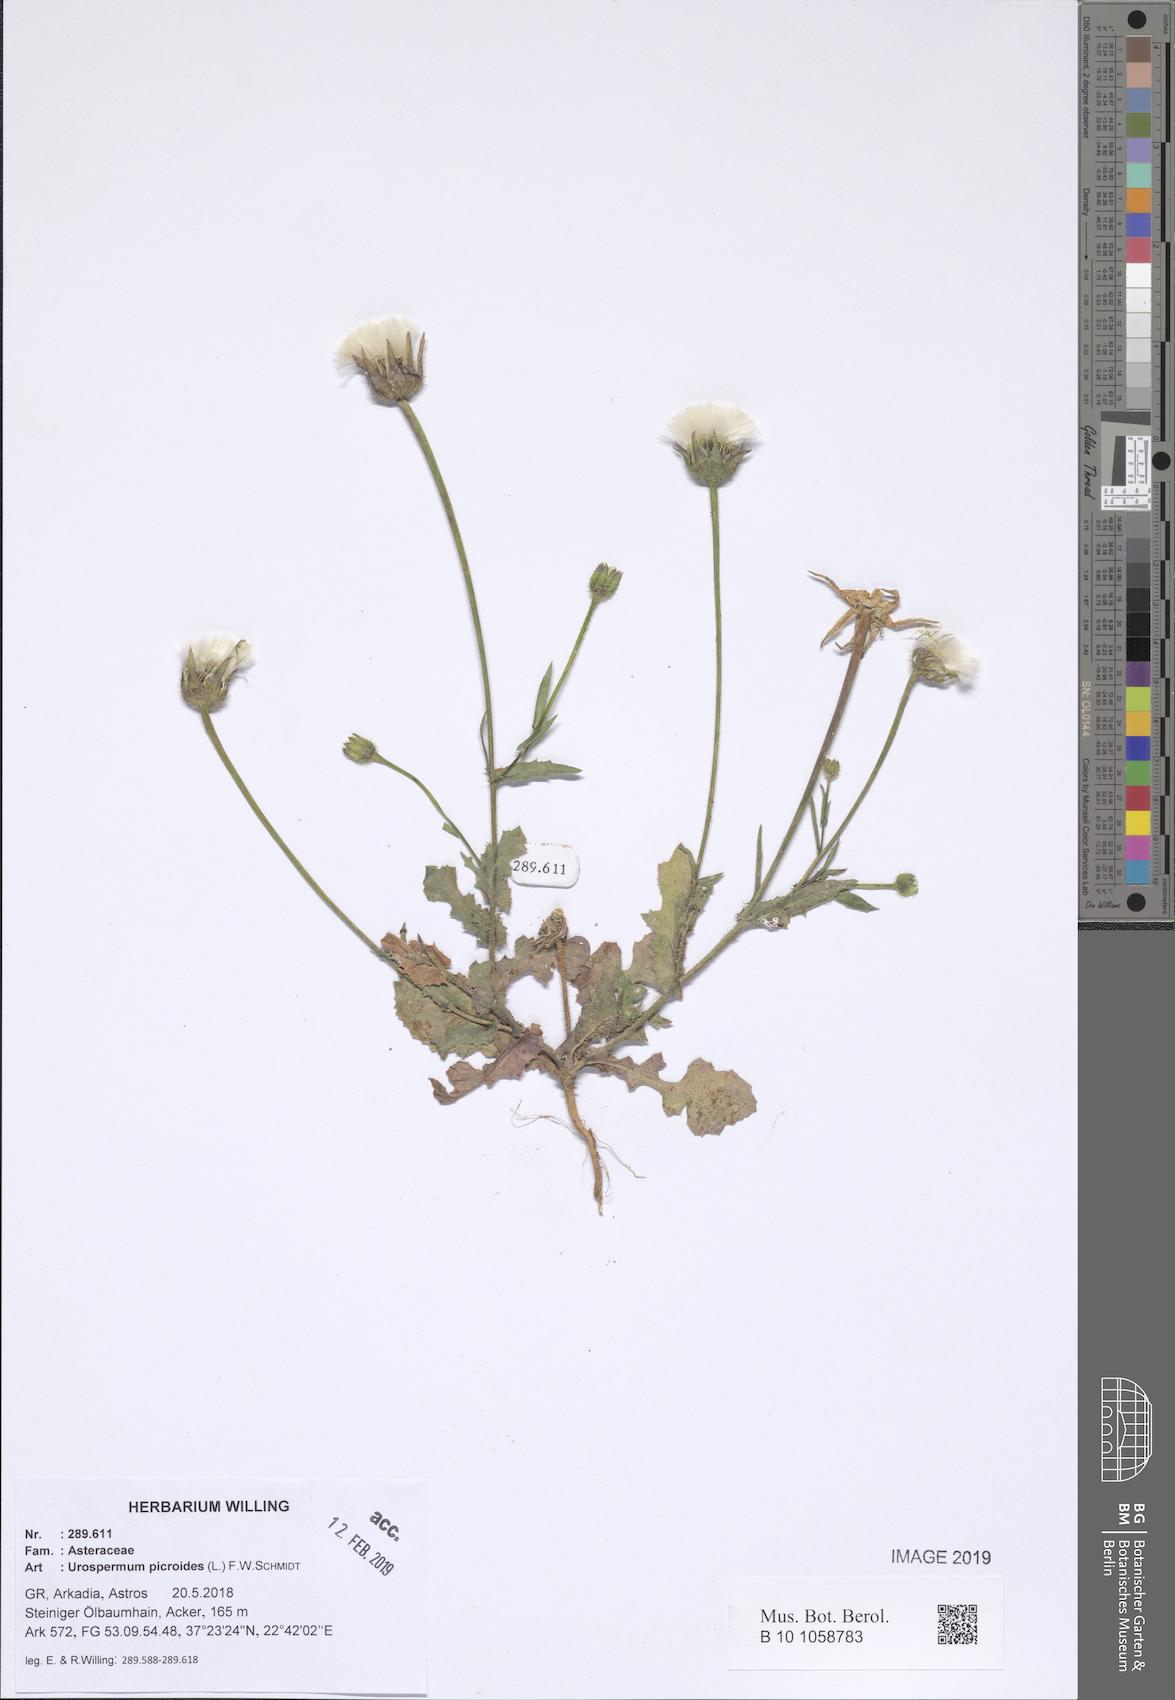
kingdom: Plantae
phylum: Tracheophyta
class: Magnoliopsida
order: Asterales
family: Asteraceae
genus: Urospermum
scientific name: Urospermum picroides
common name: False hawkbit
